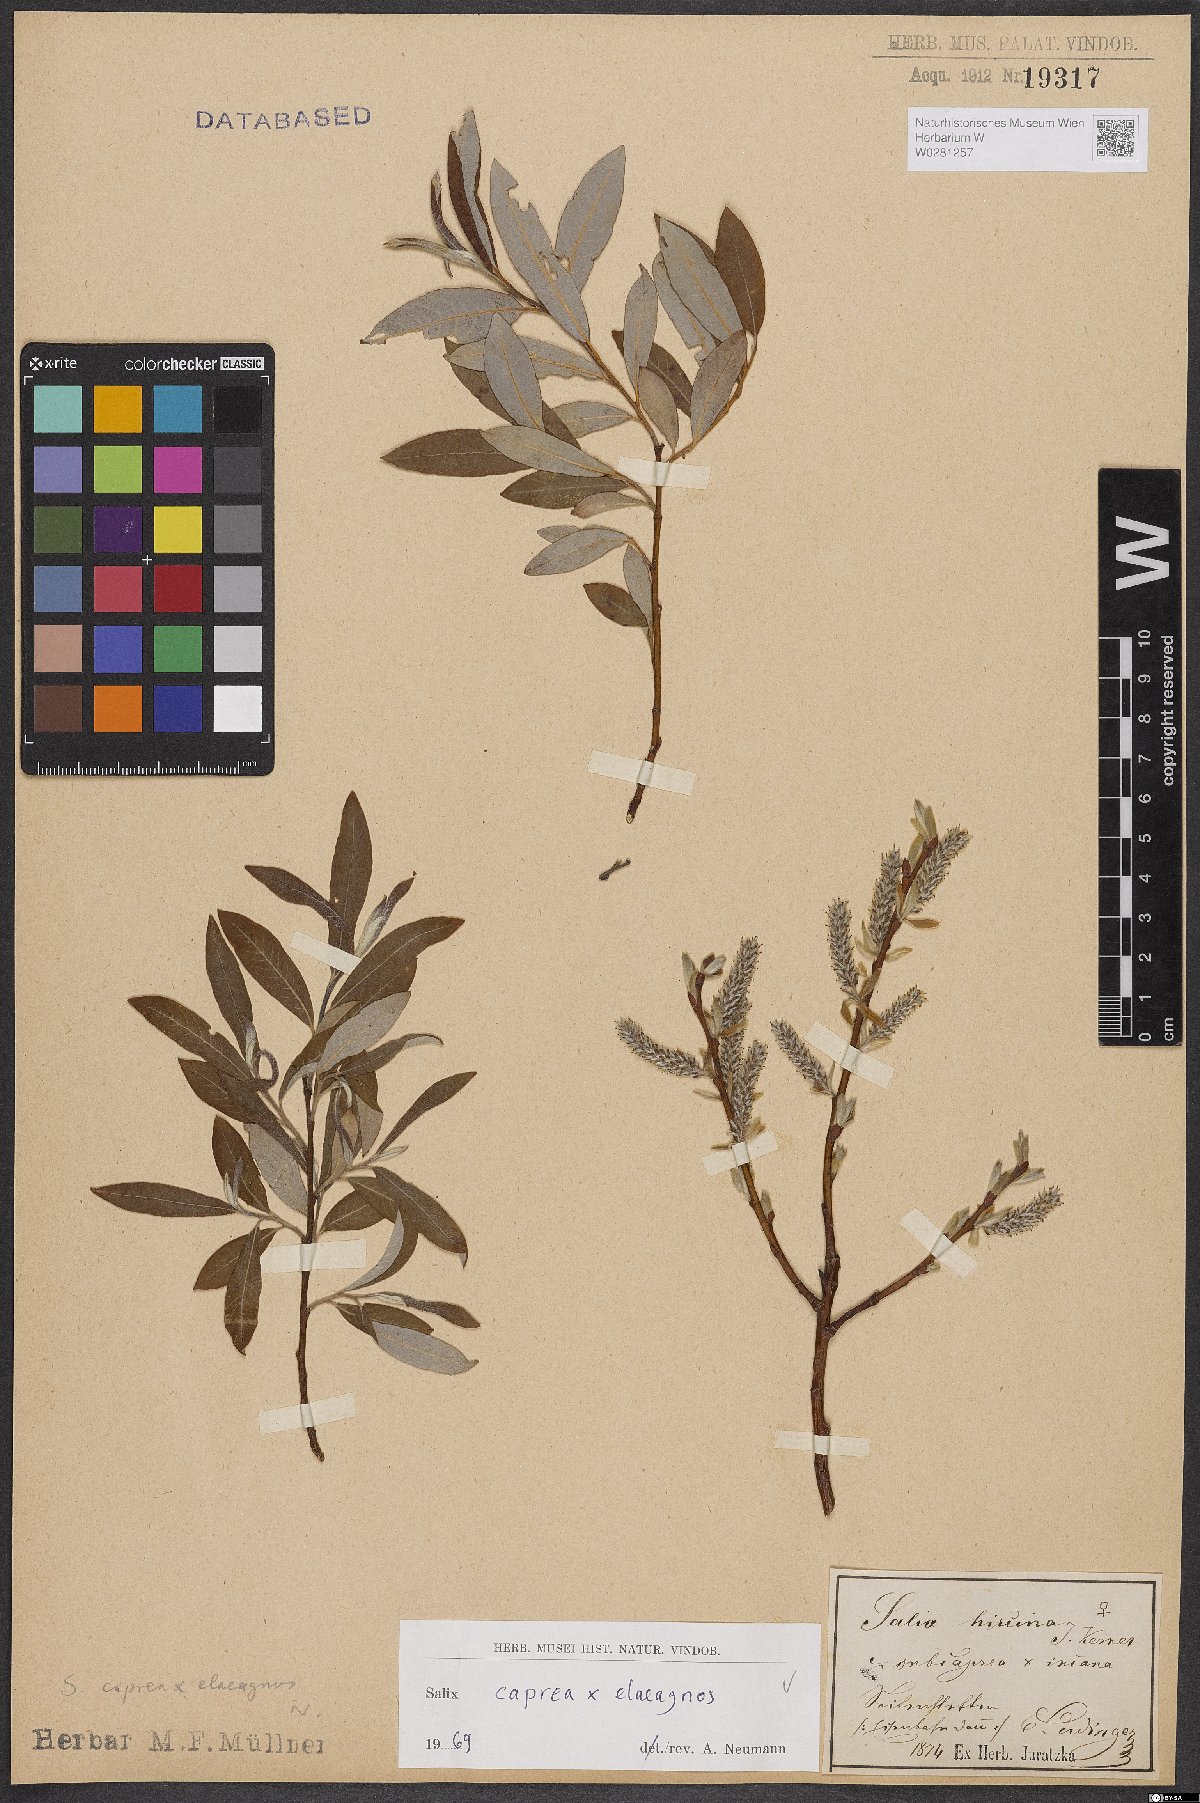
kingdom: Plantae
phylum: Tracheophyta
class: Magnoliopsida
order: Malpighiales
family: Salicaceae
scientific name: Salicaceae
